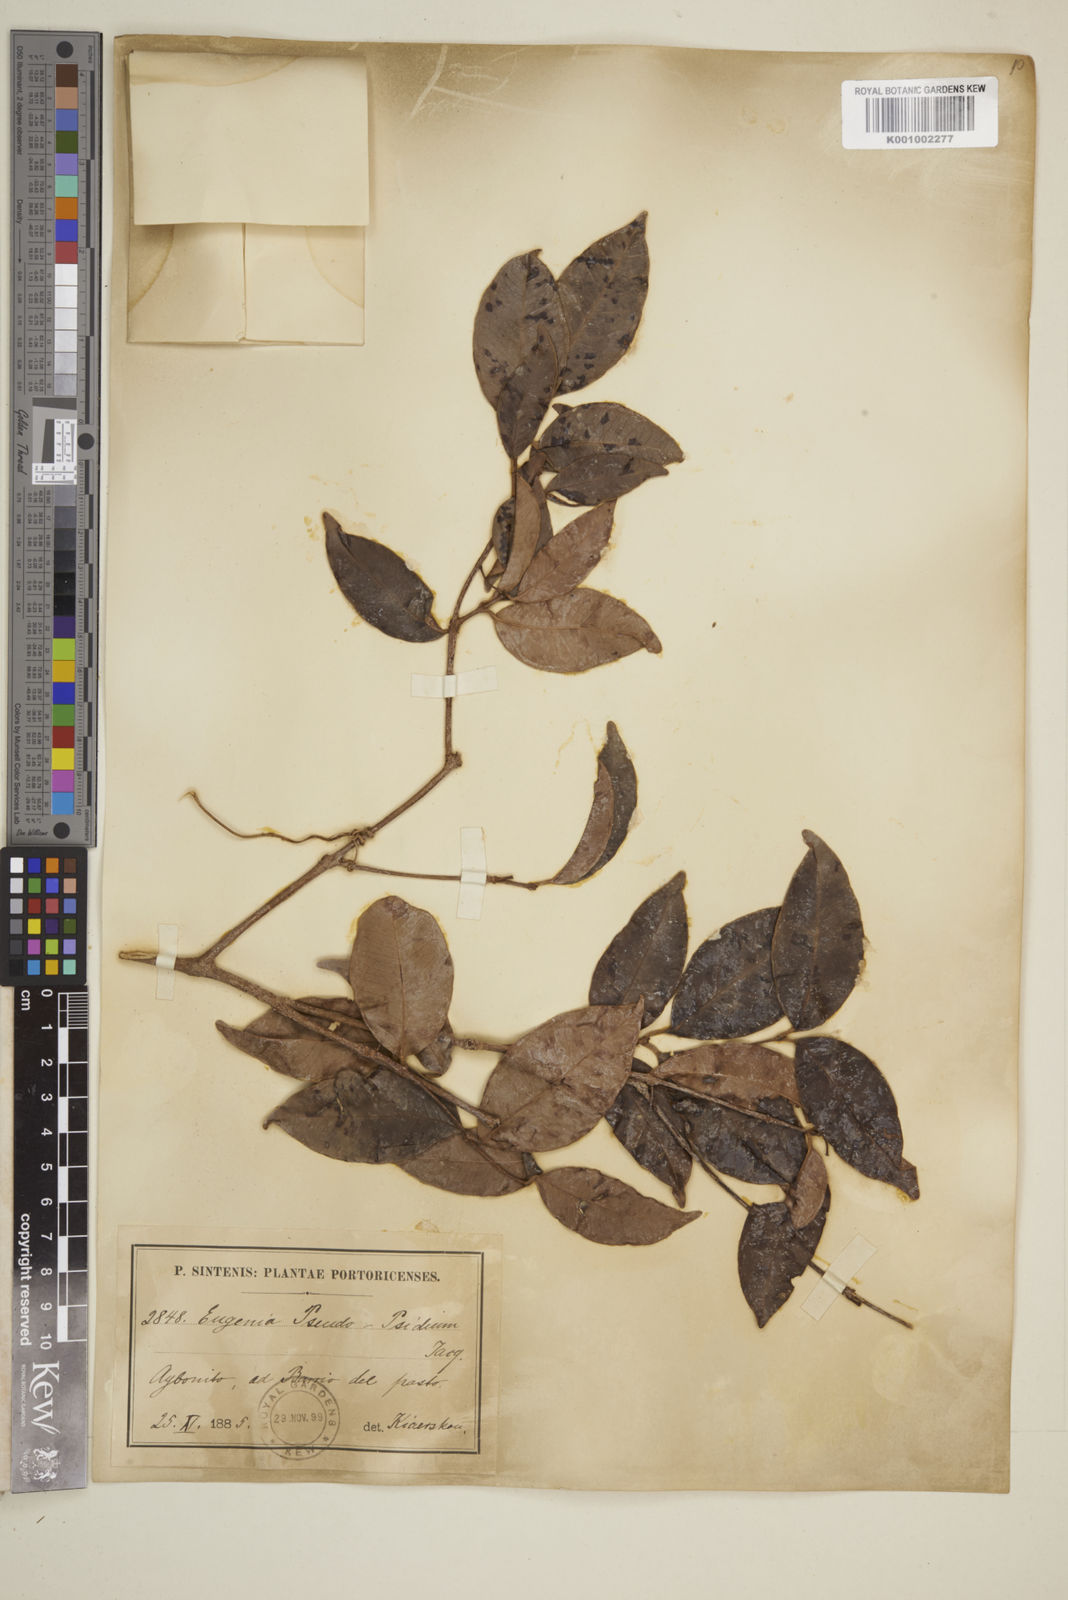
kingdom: Plantae
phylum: Tracheophyta
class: Magnoliopsida
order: Myrtales
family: Myrtaceae
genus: Eugenia
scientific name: Eugenia pseudopsidium
